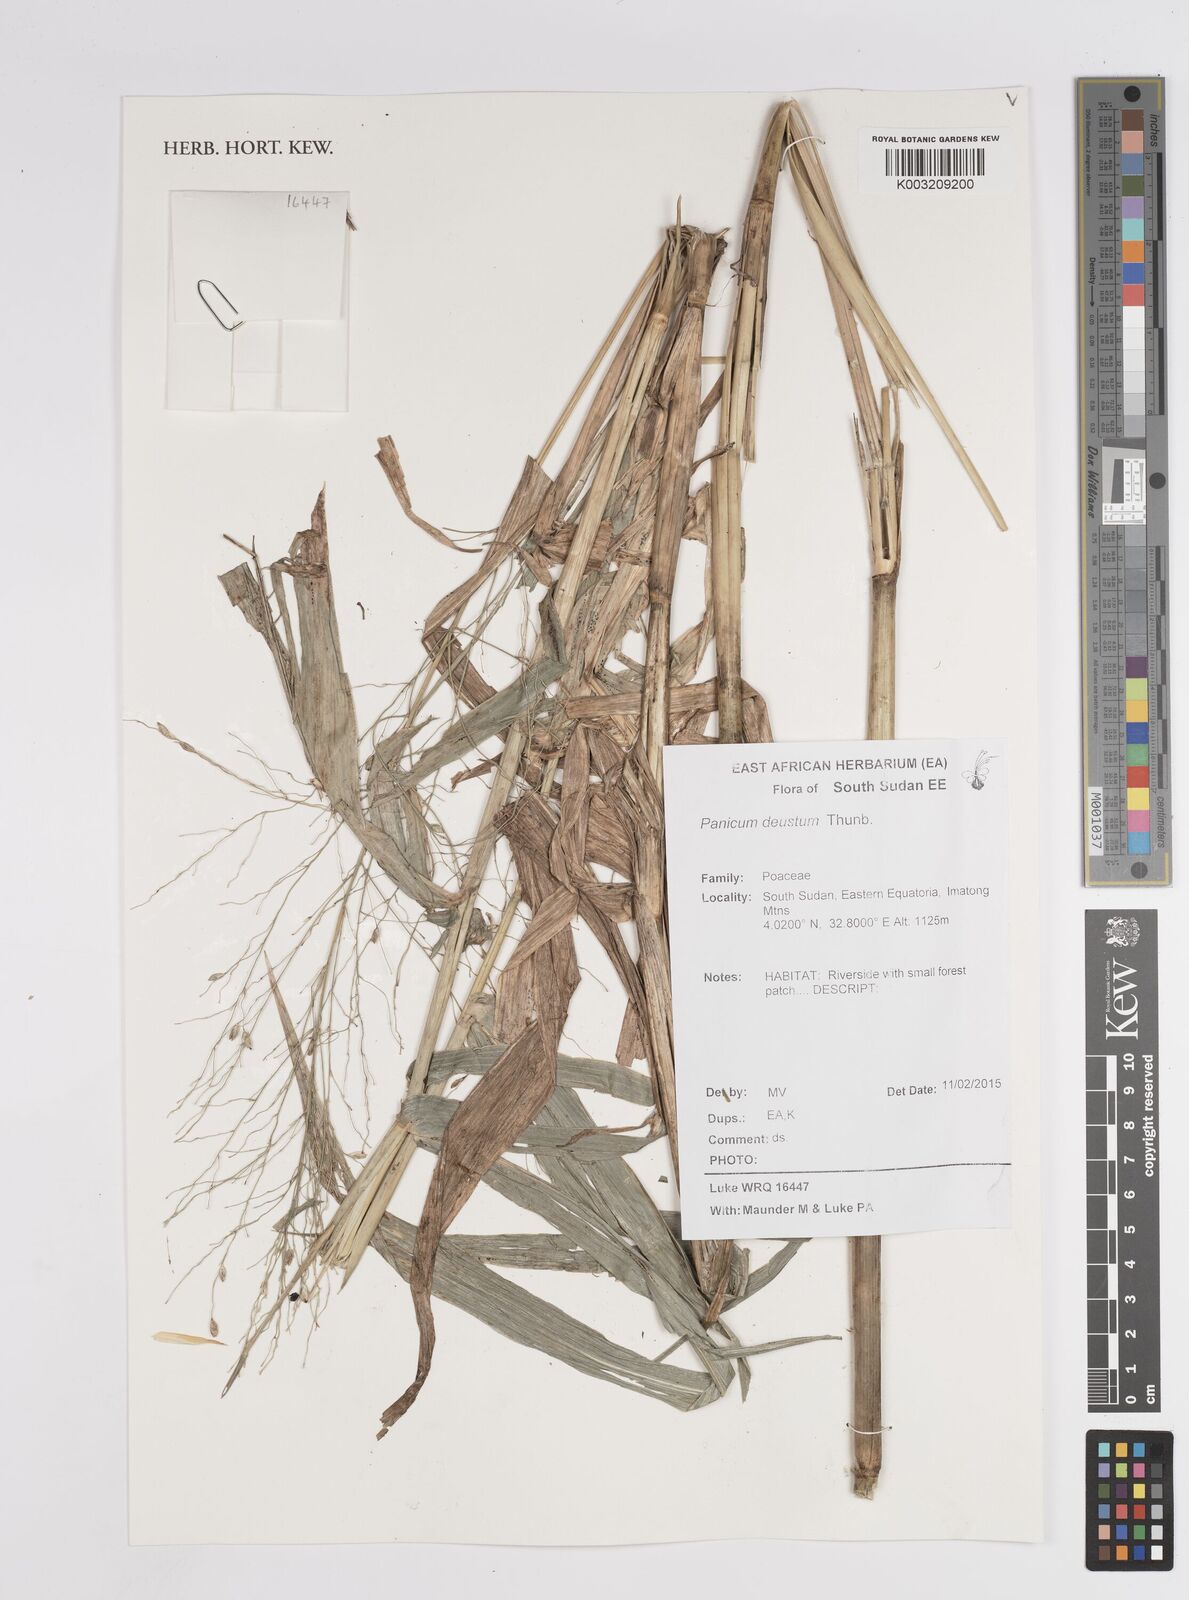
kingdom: Plantae
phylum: Tracheophyta
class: Liliopsida
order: Poales
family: Poaceae
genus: Panicum
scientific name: Panicum
